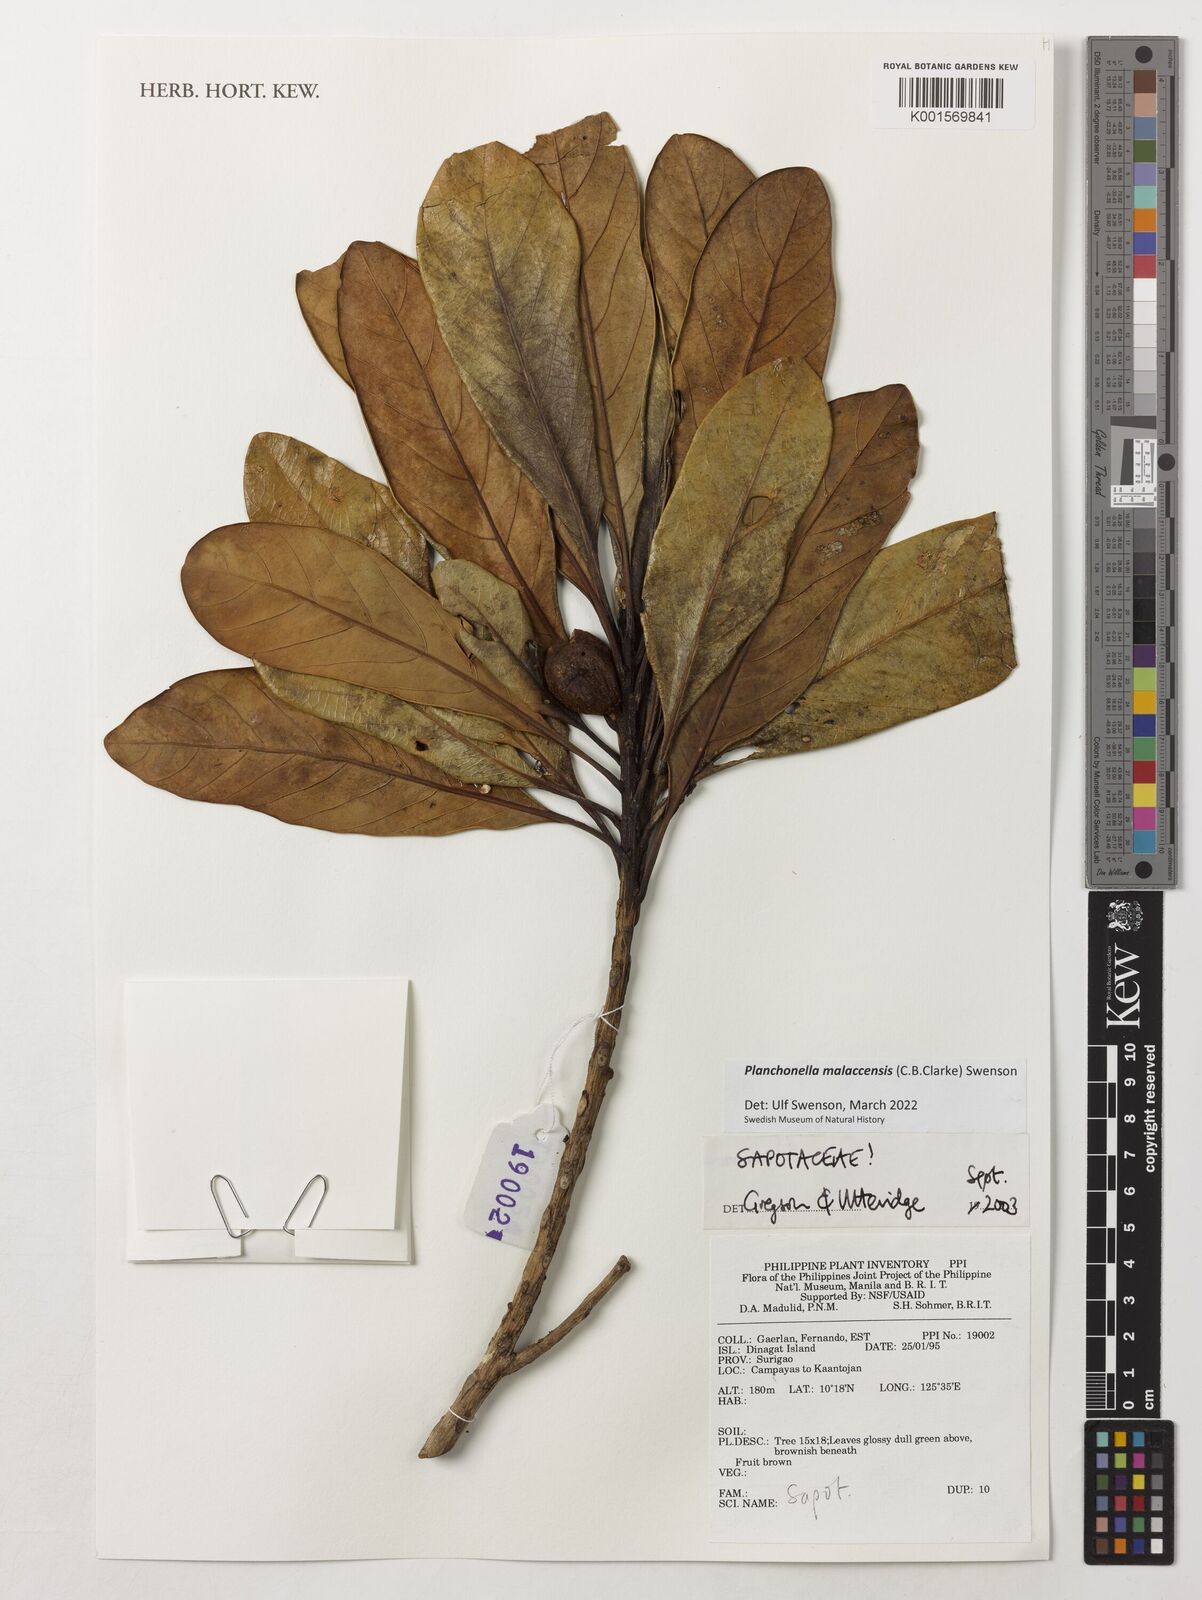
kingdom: Plantae
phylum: Tracheophyta
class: Magnoliopsida
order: Ericales
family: Sapotaceae
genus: Planchonella
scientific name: Planchonella malaccensis
